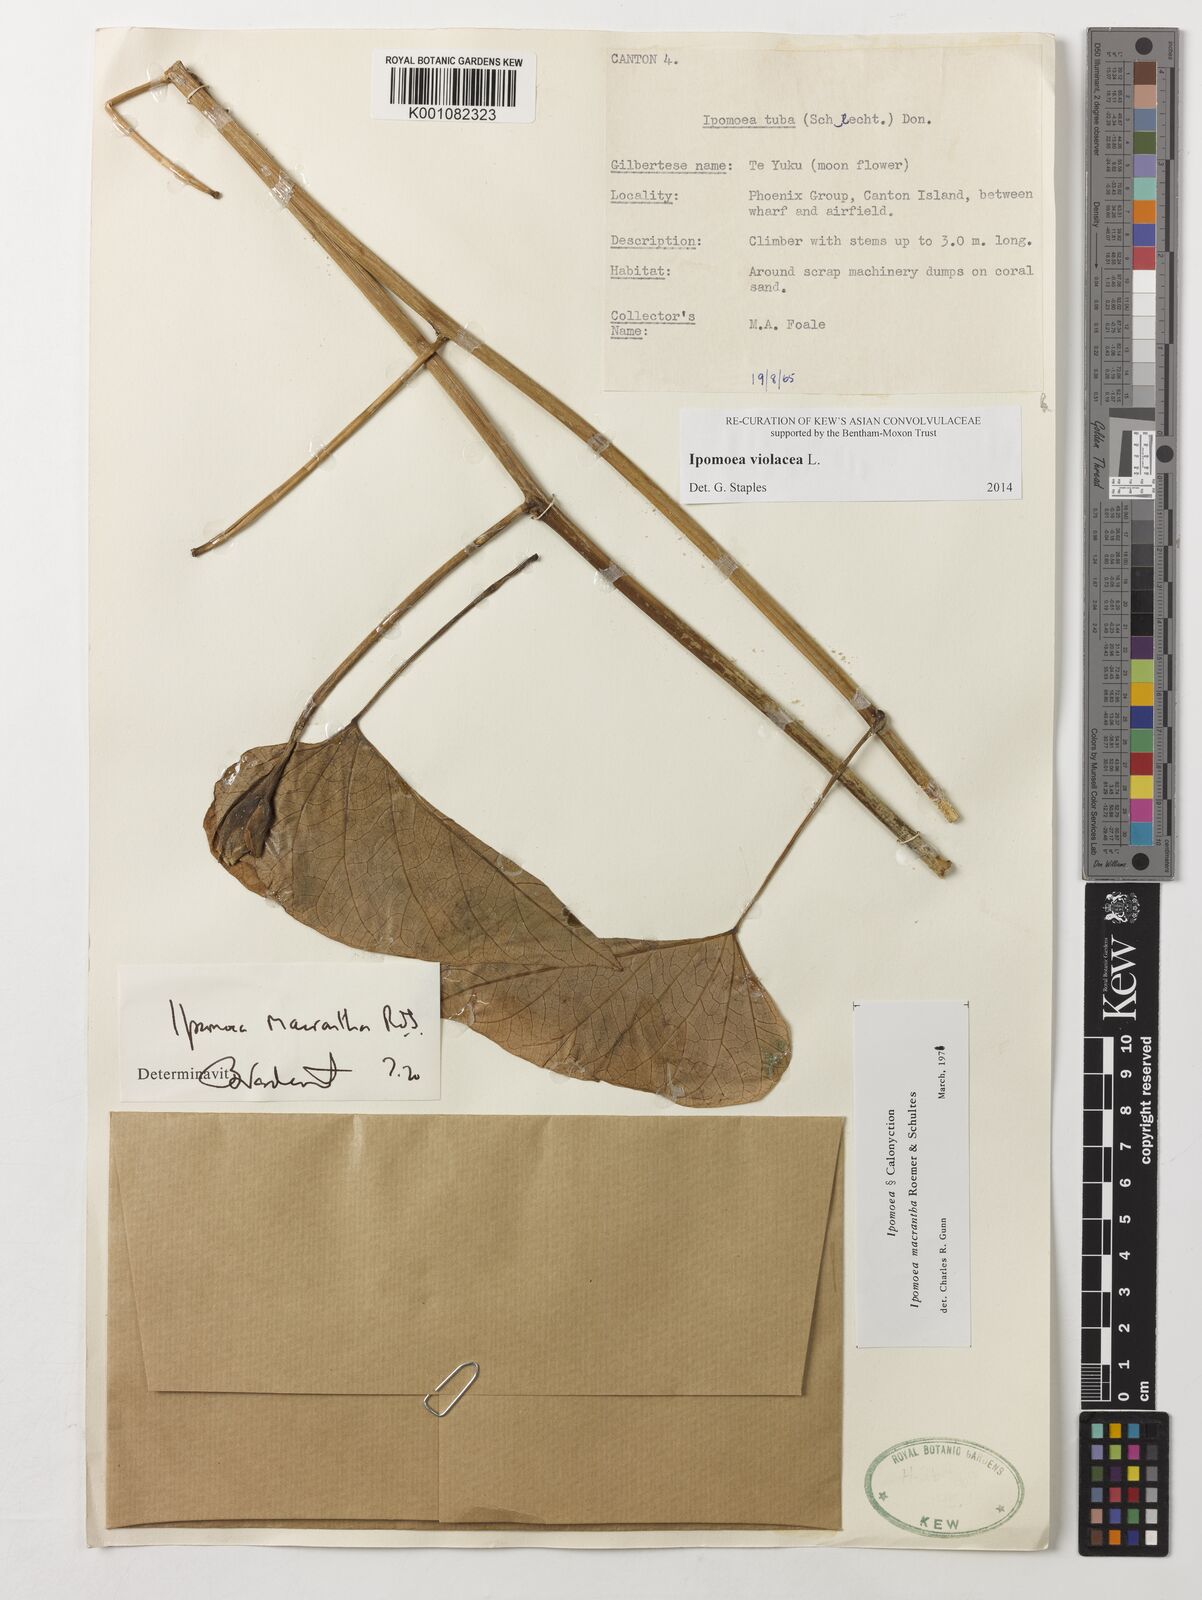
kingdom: Plantae
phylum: Tracheophyta
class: Magnoliopsida
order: Solanales
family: Convolvulaceae
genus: Ipomoea
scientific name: Ipomoea violacea
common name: Beach moonflower
